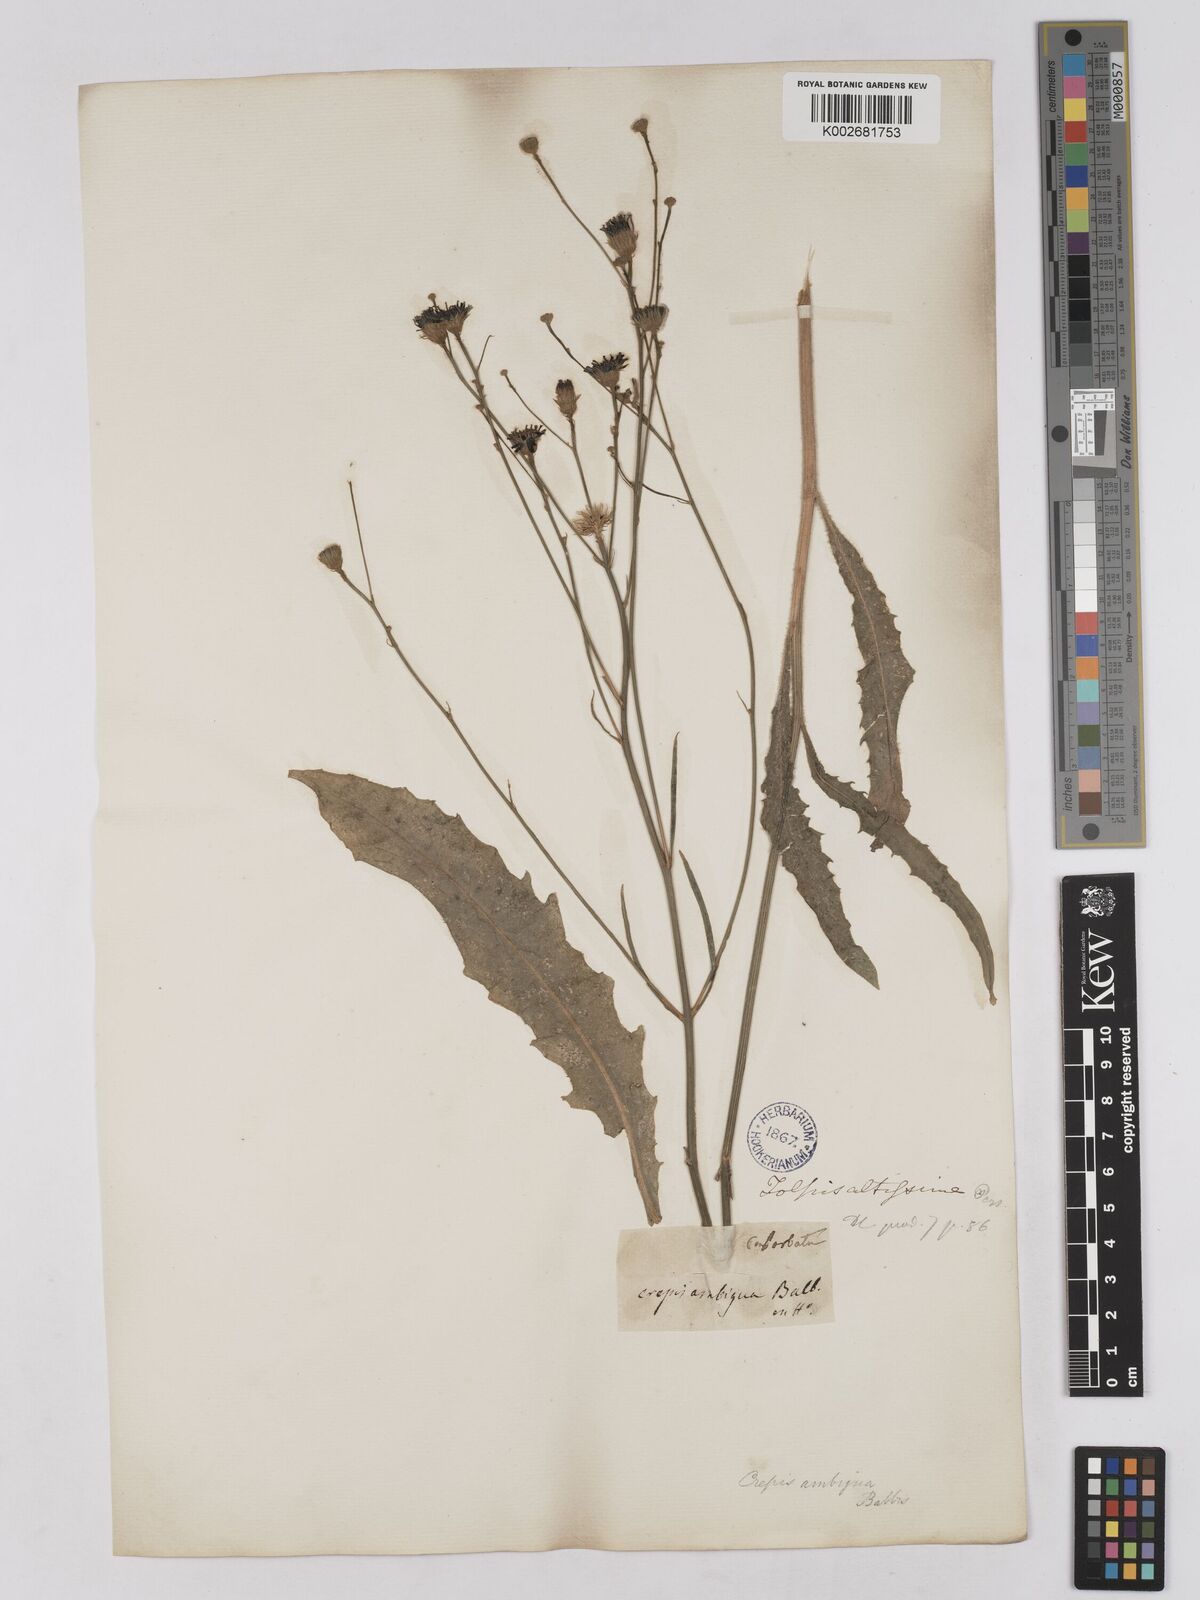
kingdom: Plantae
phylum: Tracheophyta
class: Magnoliopsida
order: Asterales
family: Asteraceae
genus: Tolpis
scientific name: Tolpis virgata
